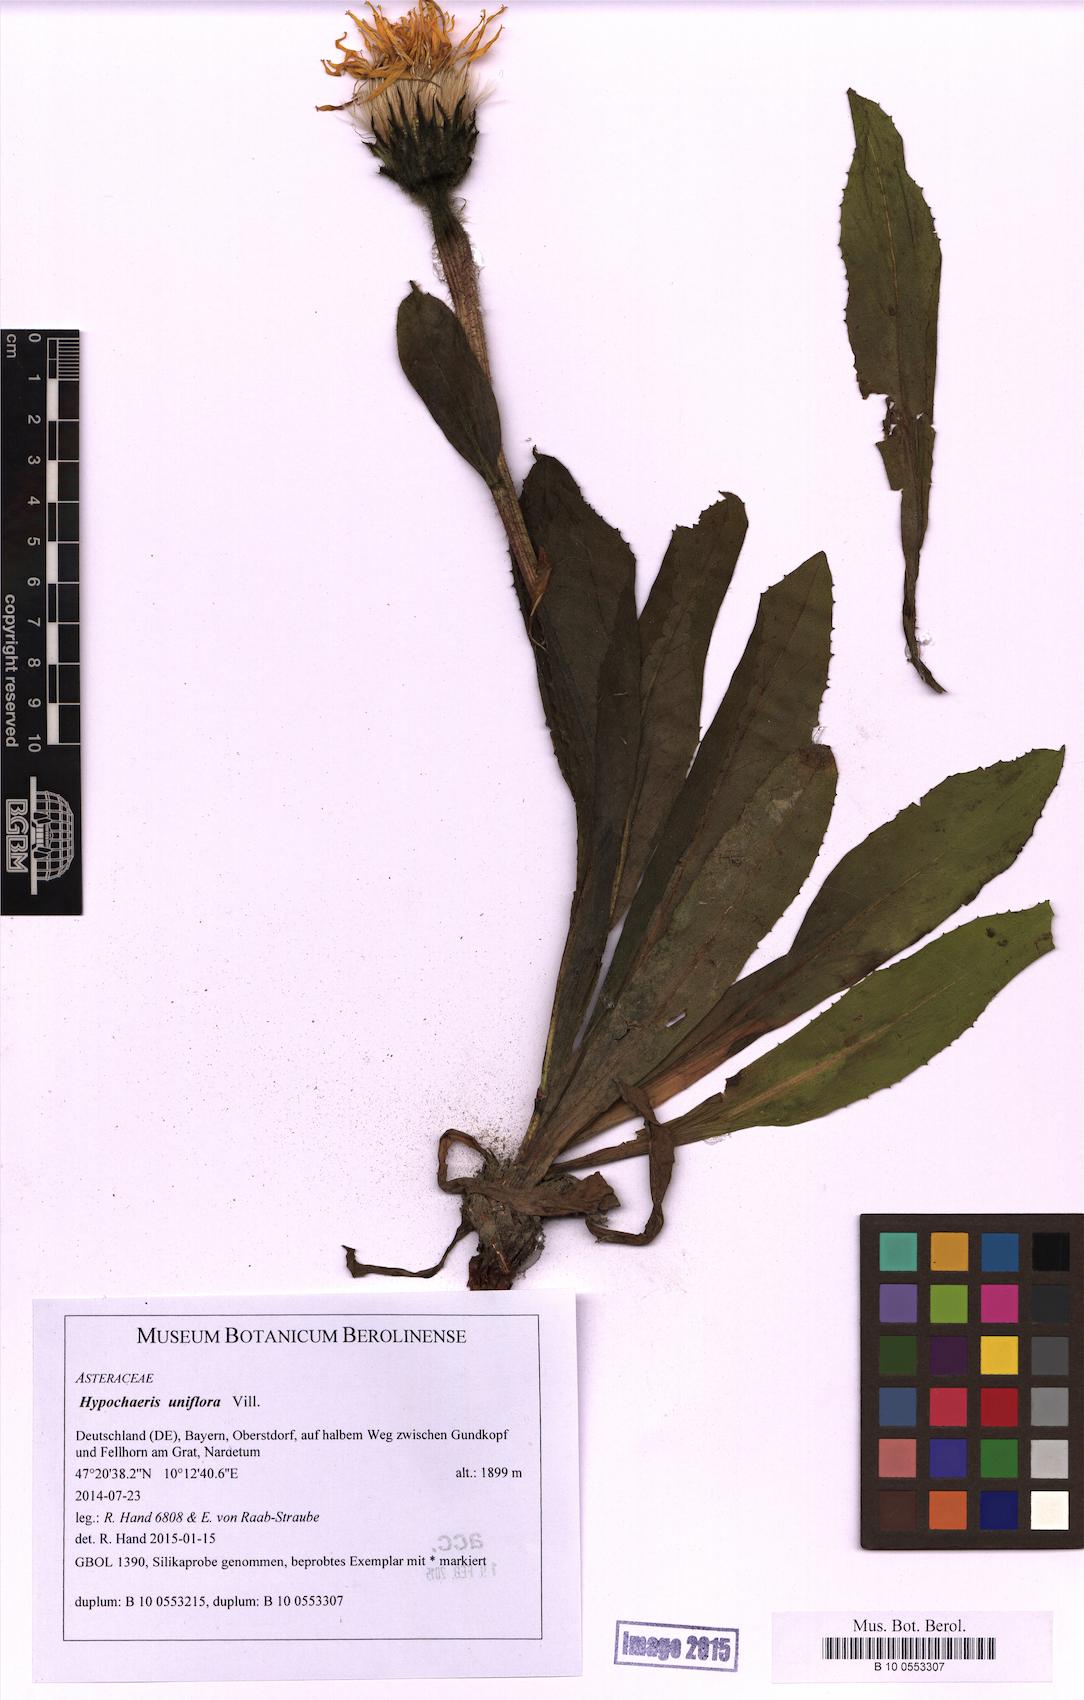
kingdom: Plantae
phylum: Tracheophyta
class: Magnoliopsida
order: Asterales
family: Asteraceae
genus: Trommsdorffia
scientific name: Trommsdorffia uniflora
